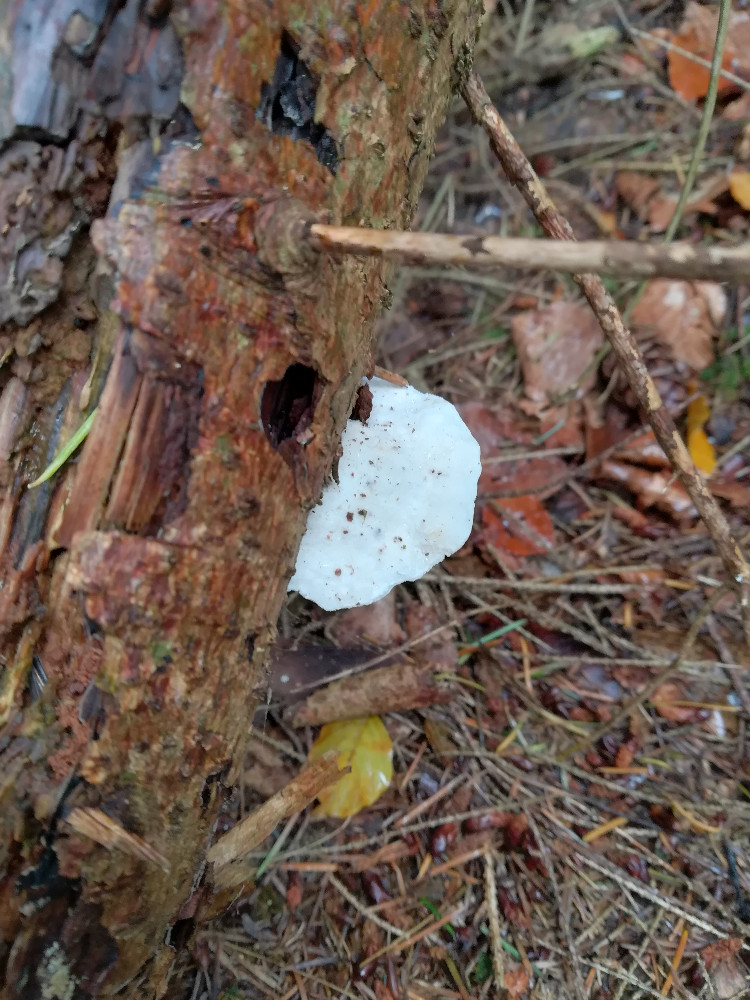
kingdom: Fungi
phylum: Basidiomycota
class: Agaricomycetes
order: Polyporales
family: Incrustoporiaceae
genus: Tyromyces
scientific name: Tyromyces lacteus
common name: mælkehvid kødporesvamp
